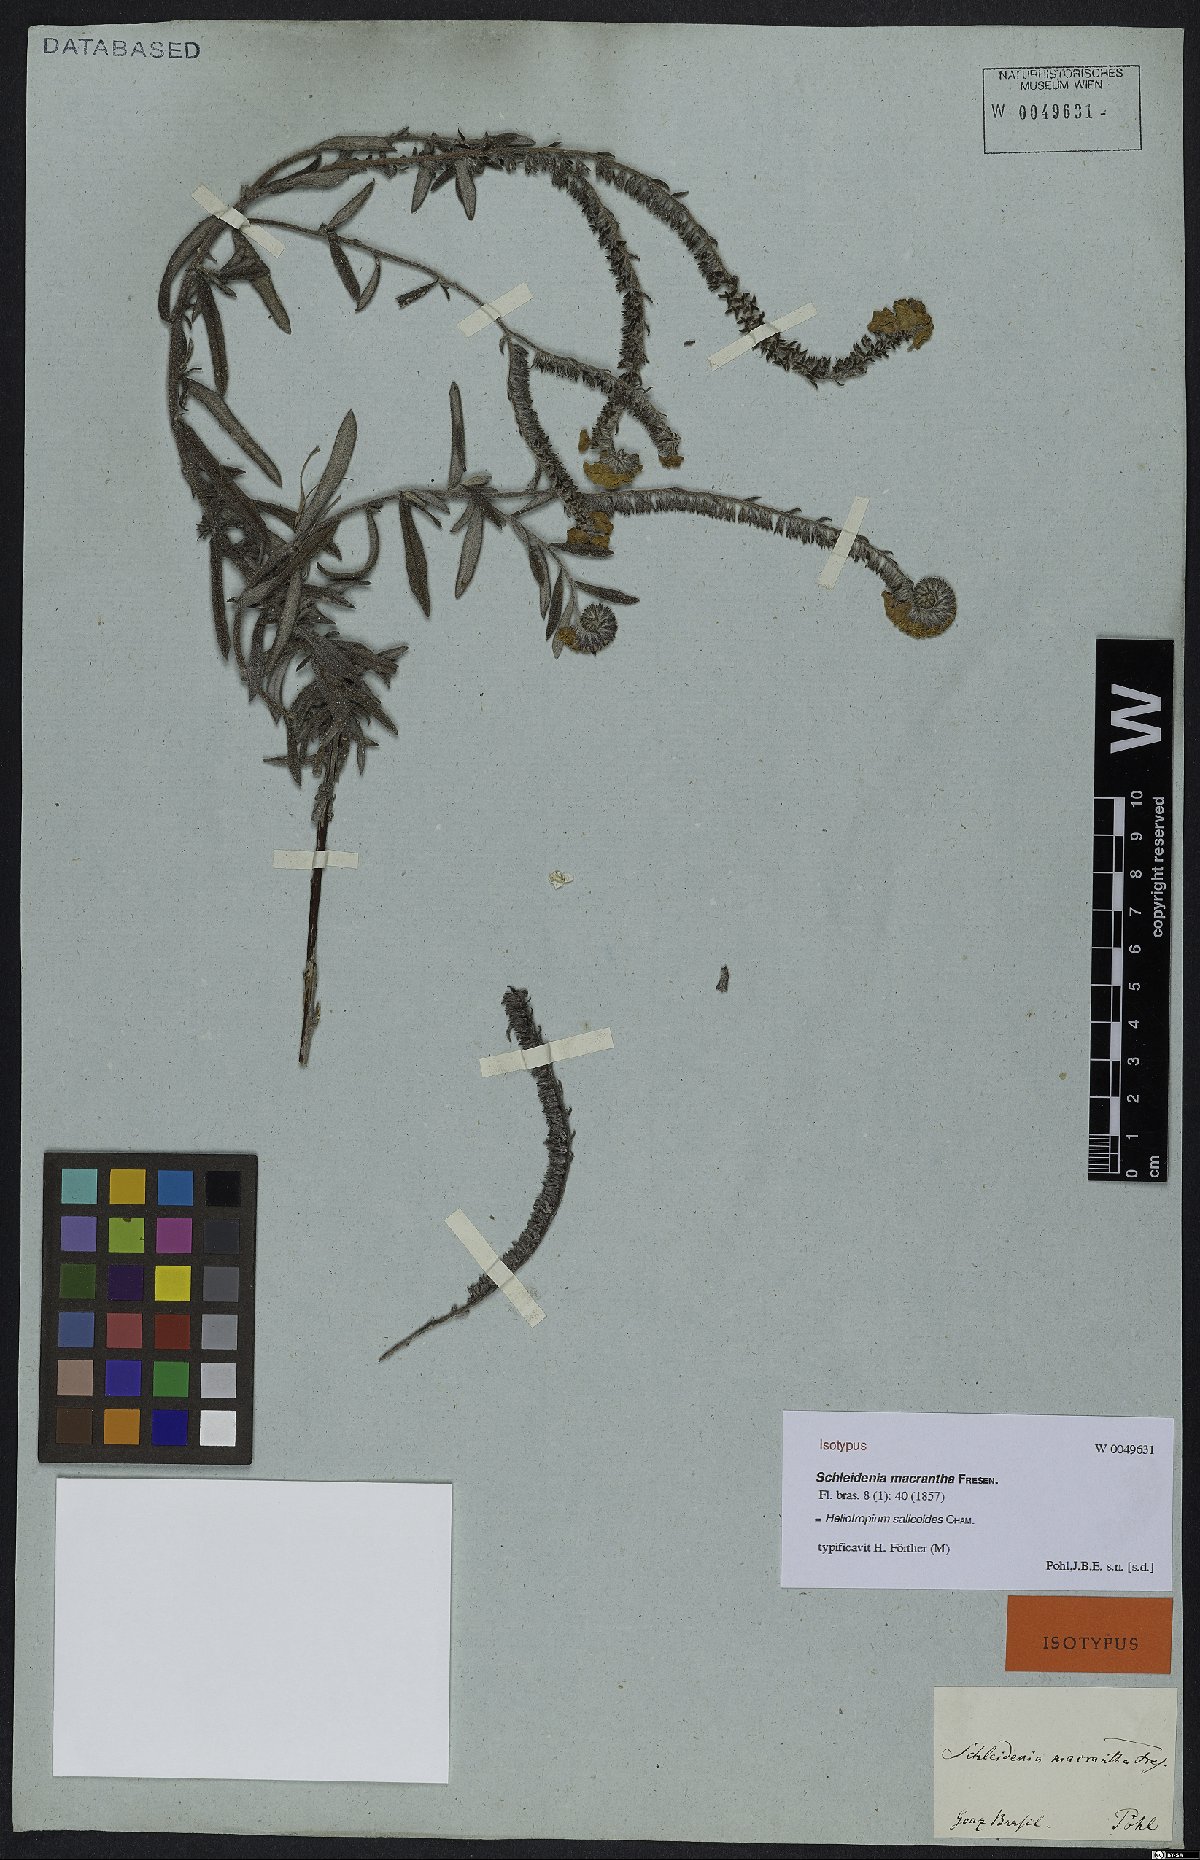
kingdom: Plantae
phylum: Tracheophyta
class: Magnoliopsida
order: Boraginales
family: Heliotropiaceae
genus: Euploca
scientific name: Euploca salicoides
